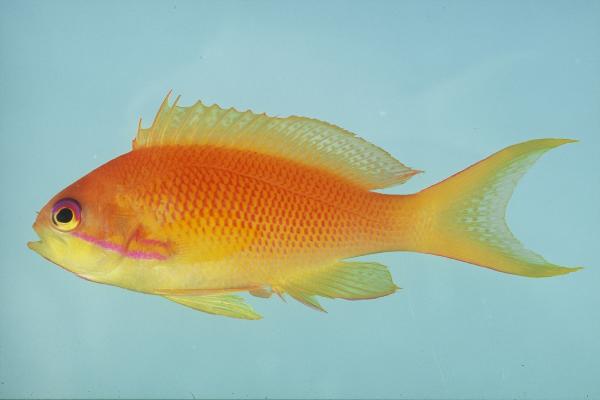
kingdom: Animalia
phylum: Chordata
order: Perciformes
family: Serranidae
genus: Pseudanthias
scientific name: Pseudanthias squamipinnis
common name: Scalefin anthias
